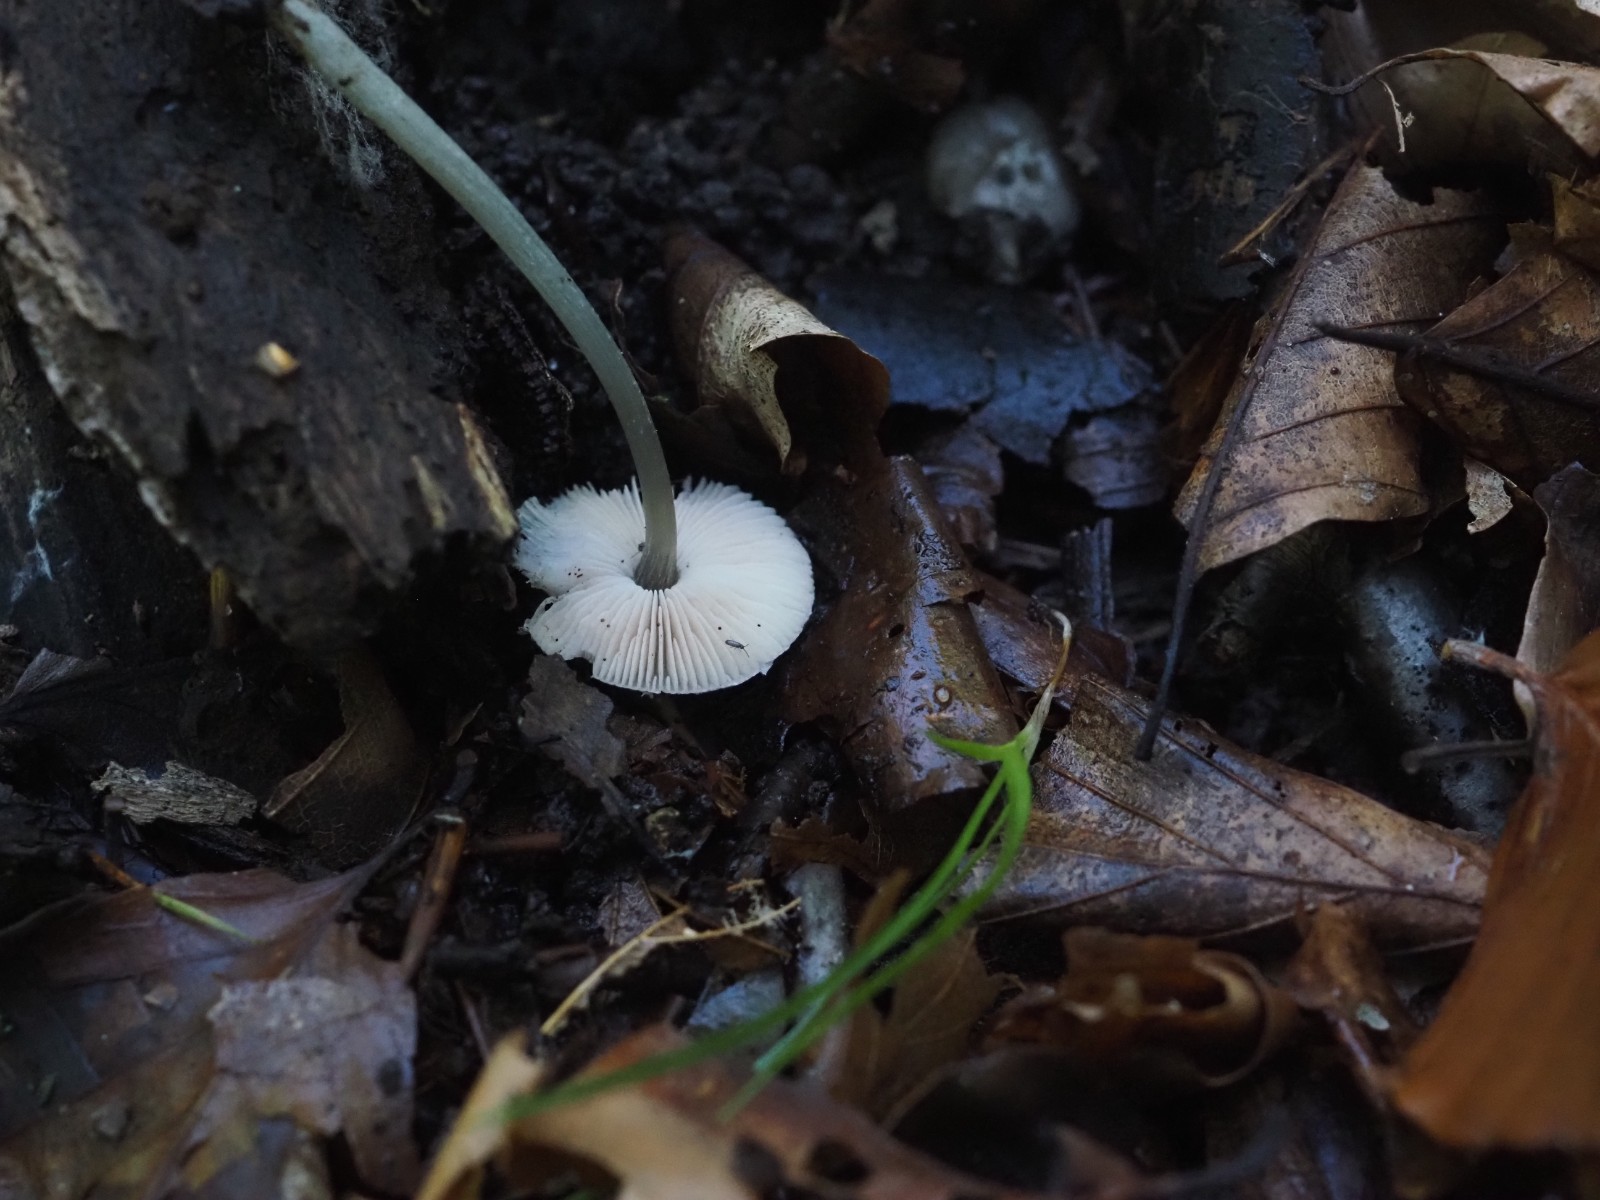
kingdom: Fungi
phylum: Basidiomycota
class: Agaricomycetes
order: Agaricales
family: Pluteaceae
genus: Pluteus
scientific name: Pluteus exiguus
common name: finskællet skærmhat
